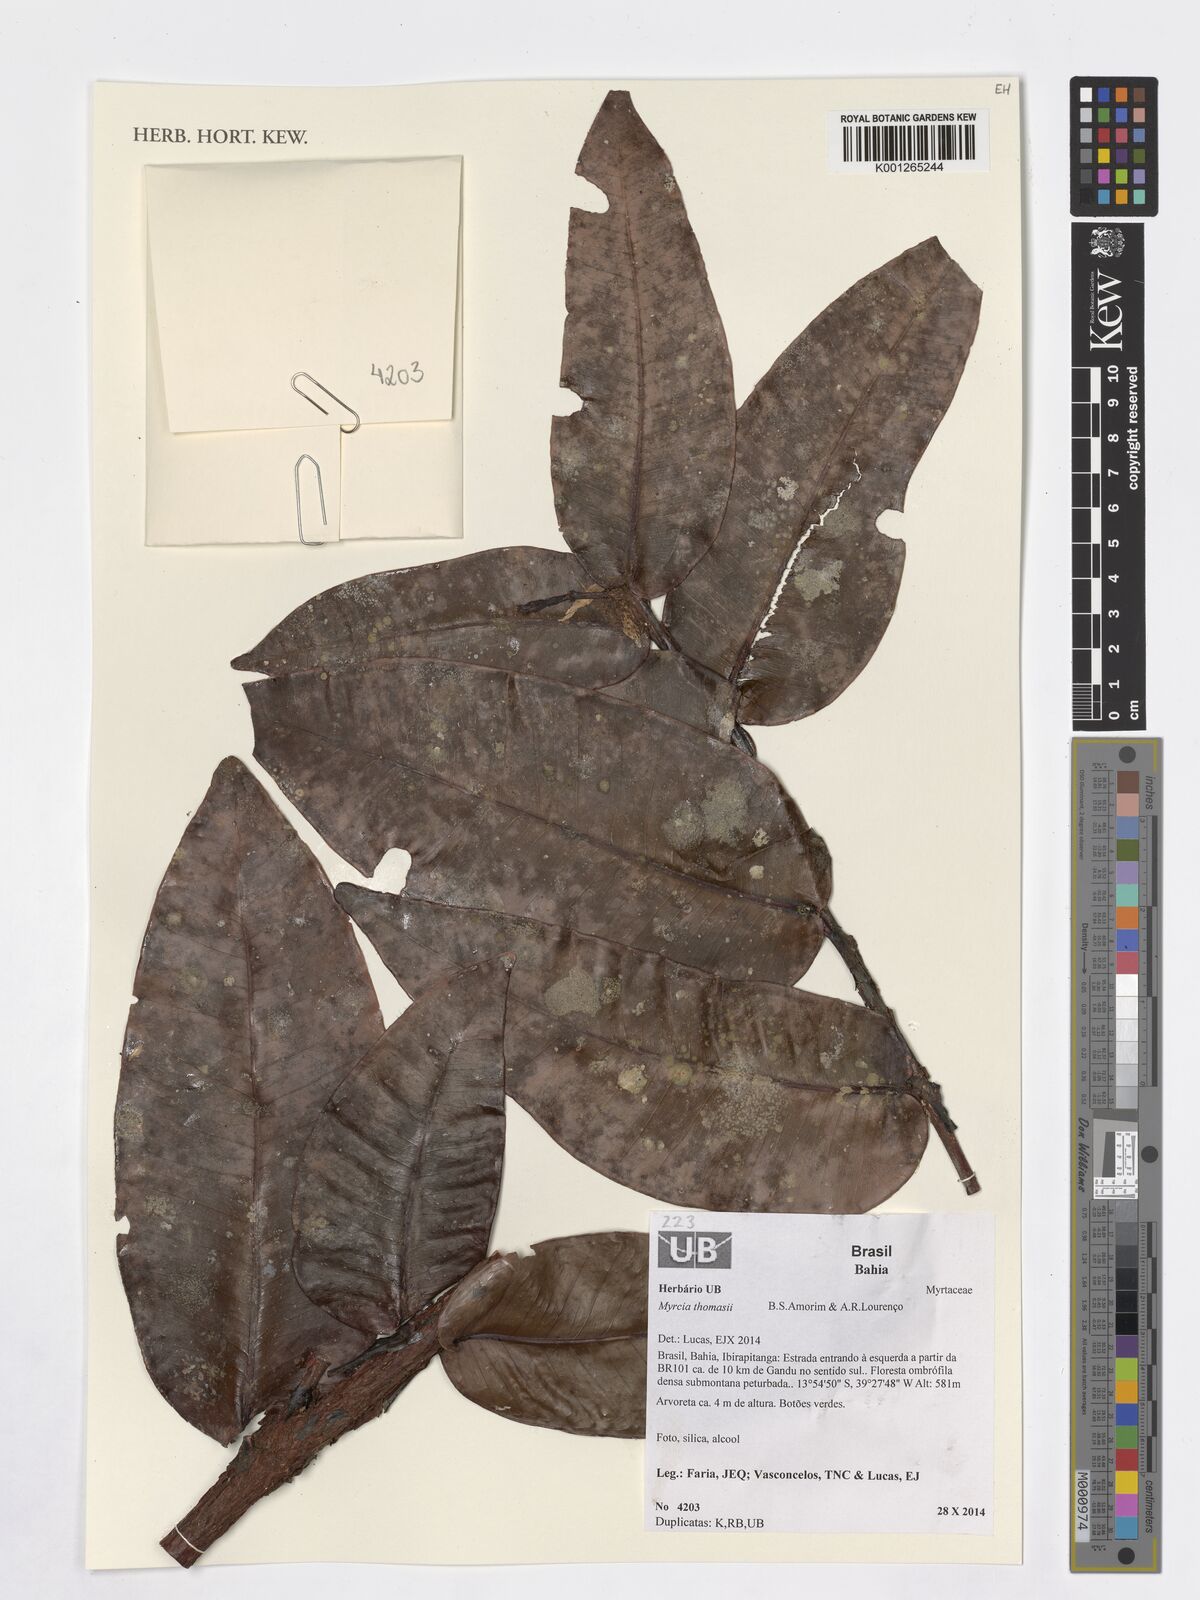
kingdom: Plantae
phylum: Tracheophyta
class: Magnoliopsida
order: Myrtales
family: Myrtaceae
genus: Myrcia
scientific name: Myrcia thomasii
